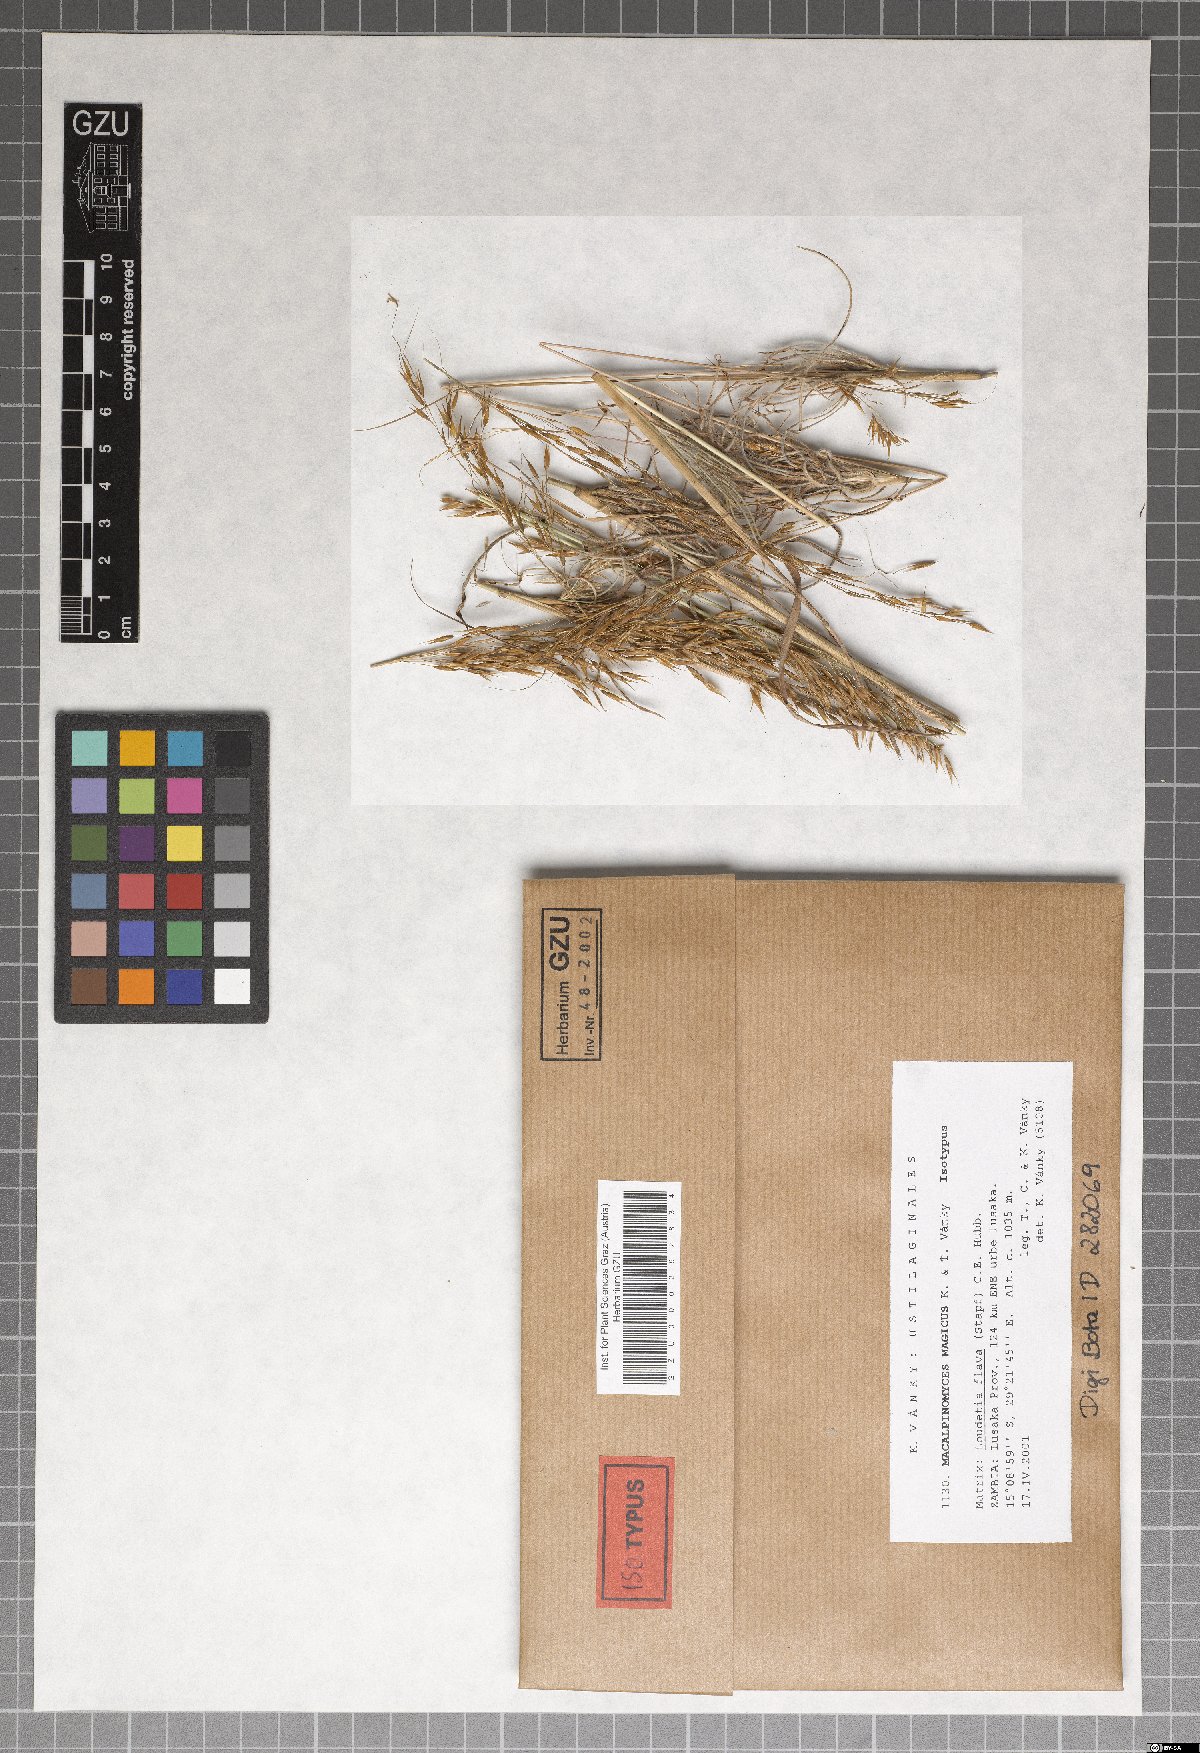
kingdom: Fungi
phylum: Basidiomycota
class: Ustilaginomycetes
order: Ustilaginales
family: Ustilaginaceae
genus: Macalpinomyces
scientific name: Macalpinomyces magicus
